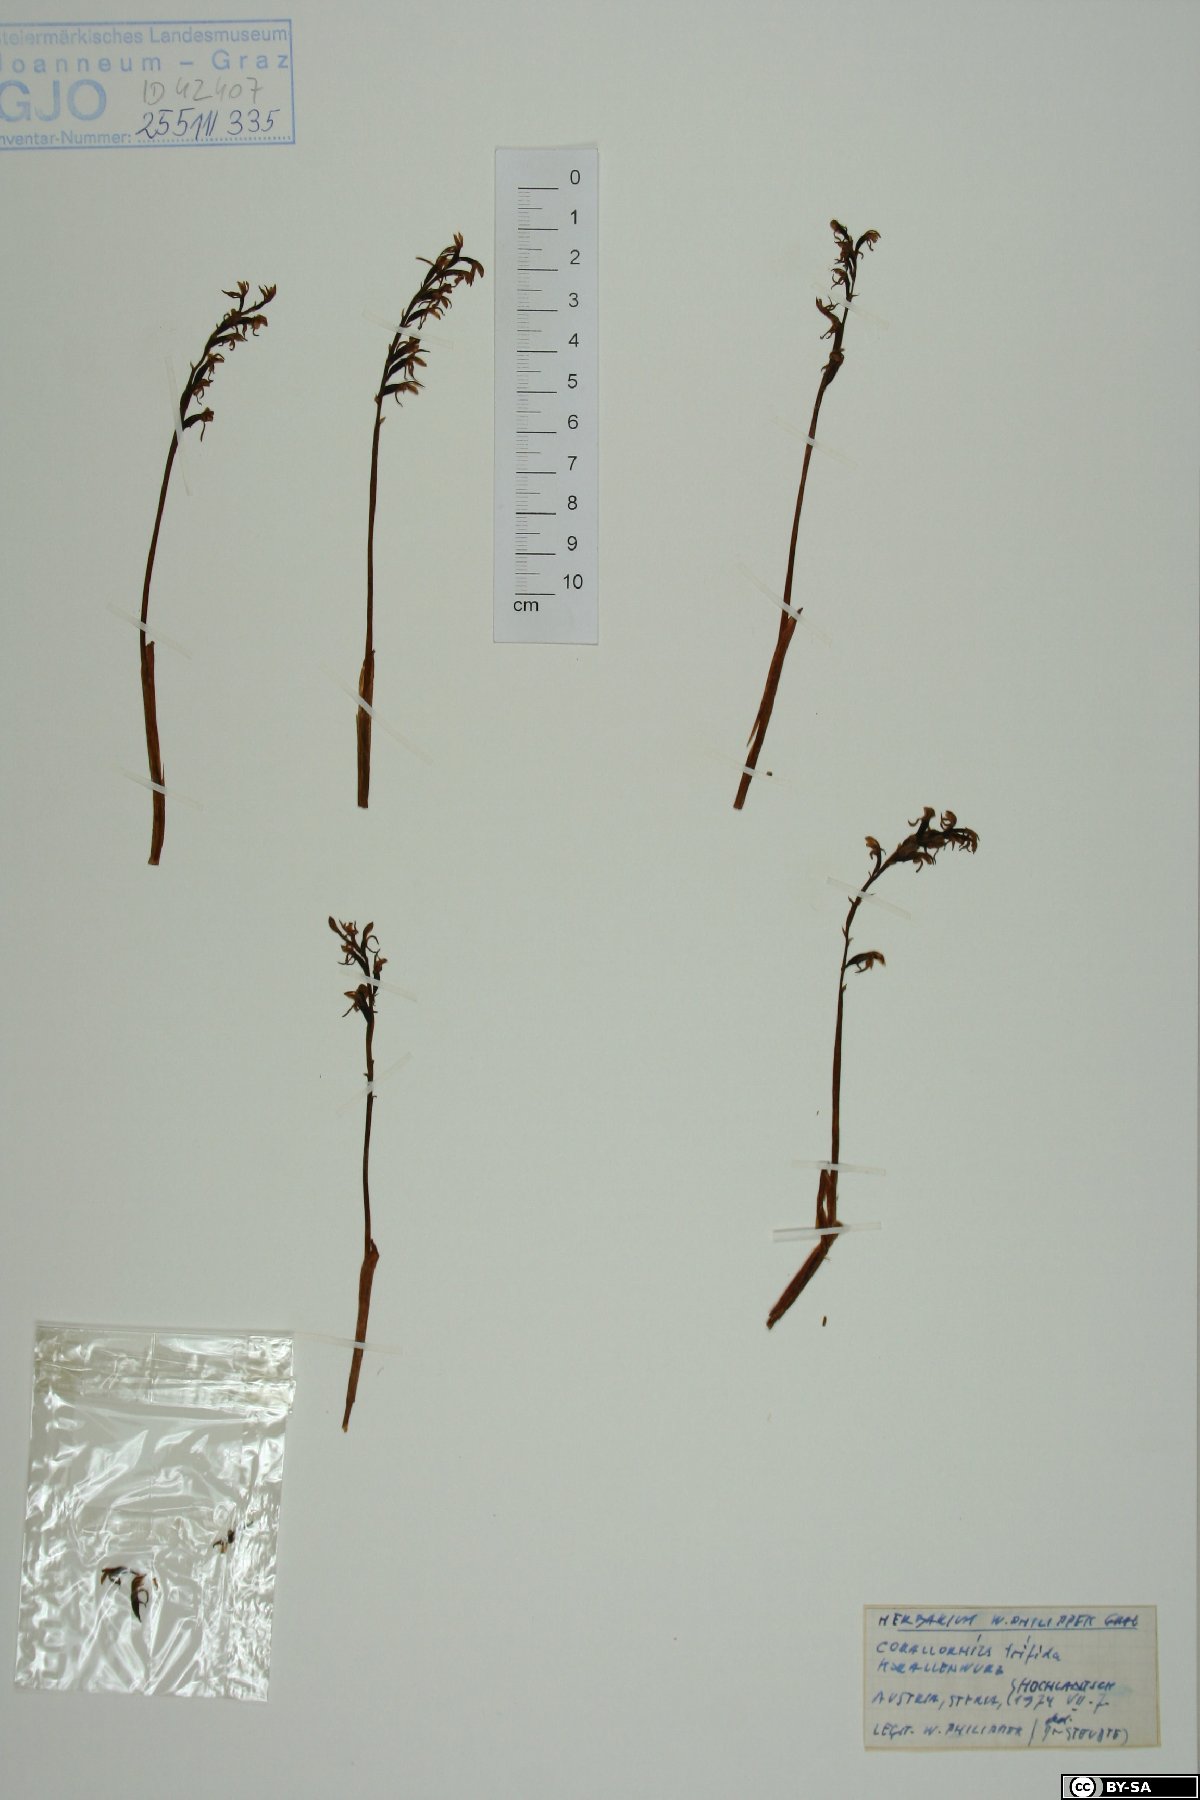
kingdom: Plantae
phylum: Tracheophyta
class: Liliopsida
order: Asparagales
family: Orchidaceae
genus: Corallorhiza
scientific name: Corallorhiza trifida
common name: Yellow coralroot
